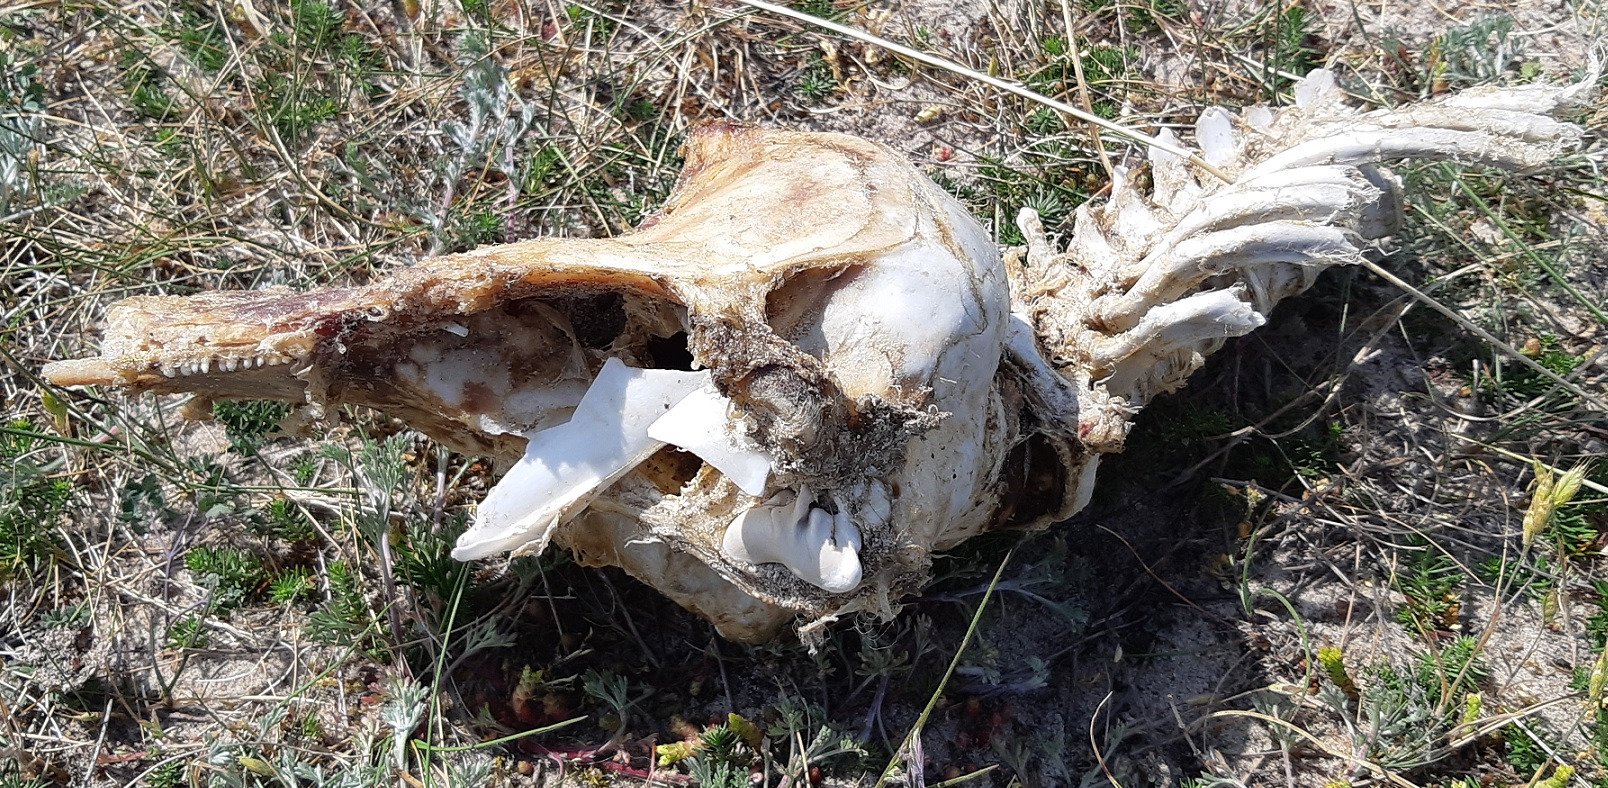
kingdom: Animalia
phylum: Chordata
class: Mammalia
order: Cetacea
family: Phocoenidae
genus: Phocoena
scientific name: Phocoena phocoena
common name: Marsvin
